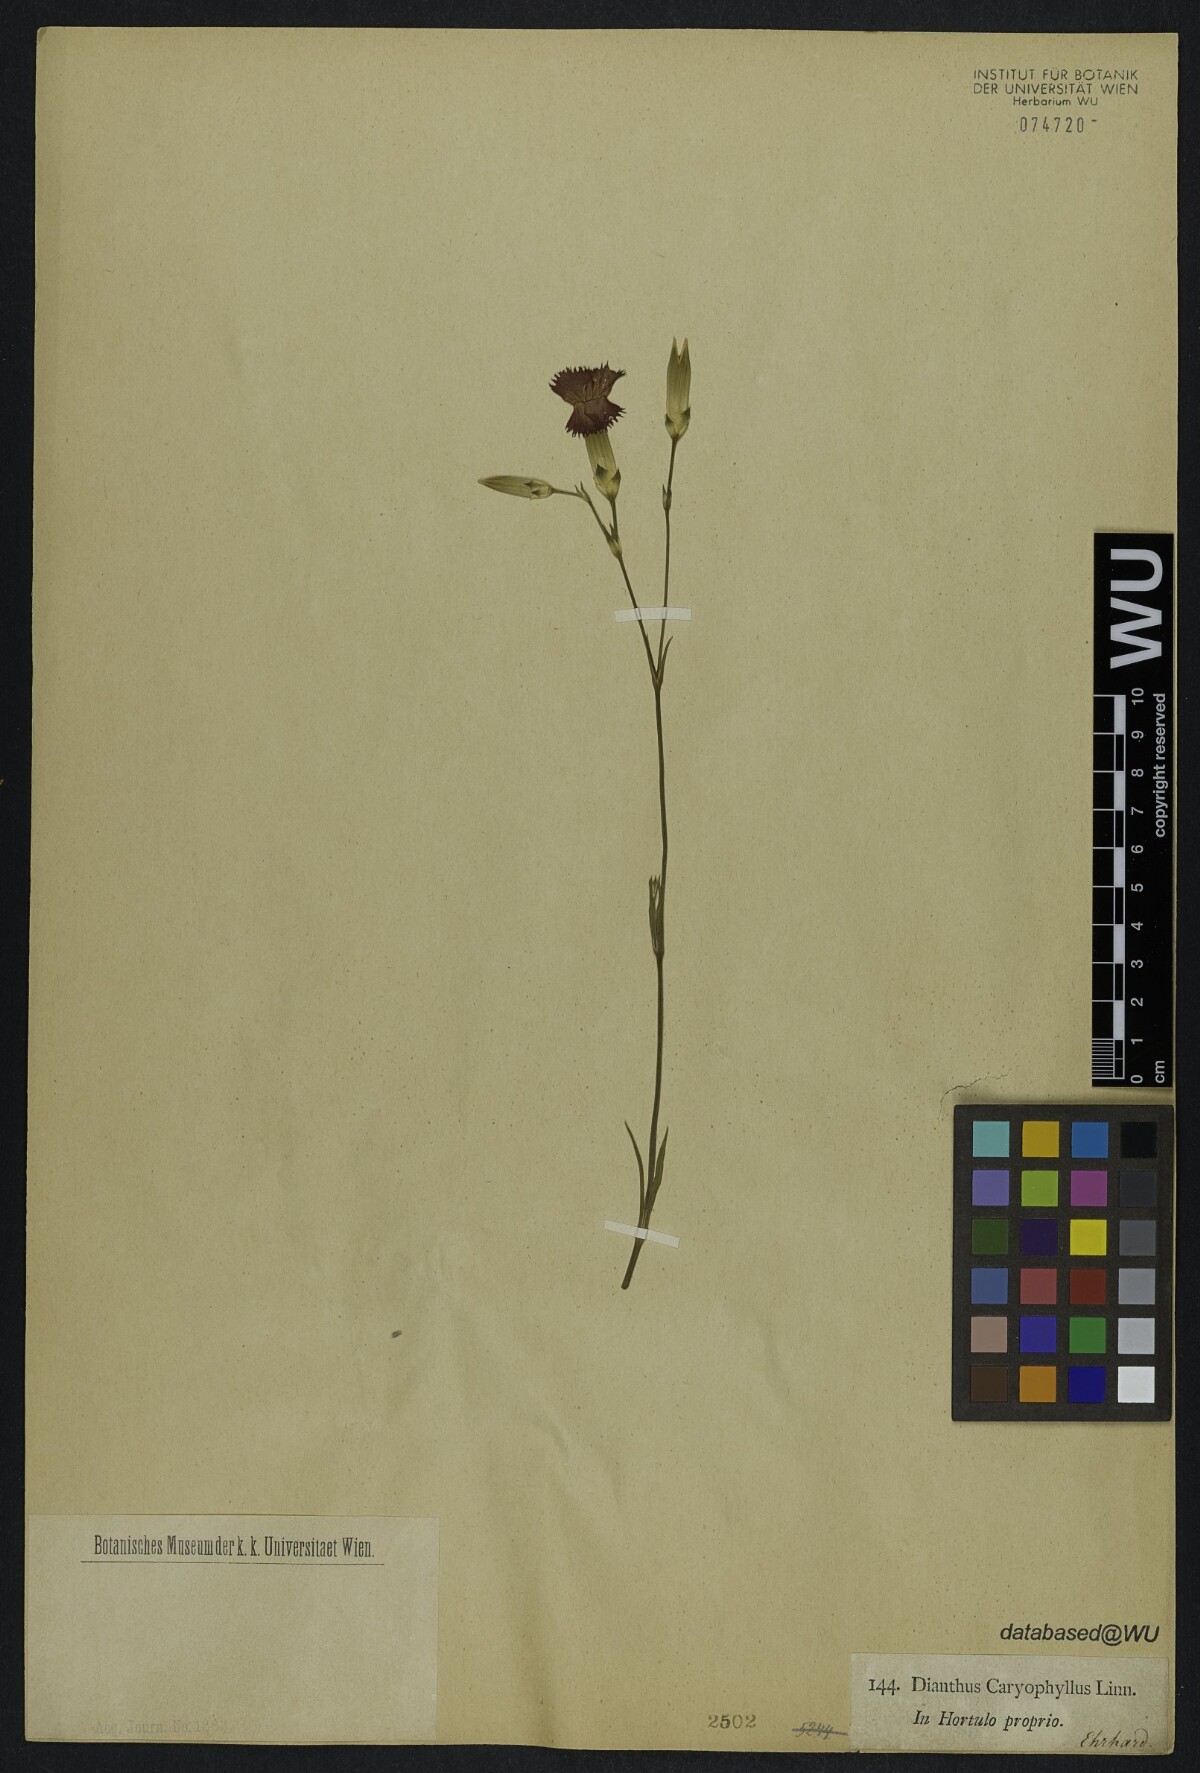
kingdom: Plantae
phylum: Tracheophyta
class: Magnoliopsida
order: Caryophyllales
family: Caryophyllaceae
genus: Dianthus
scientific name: Dianthus caryophyllus
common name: Clove pink
